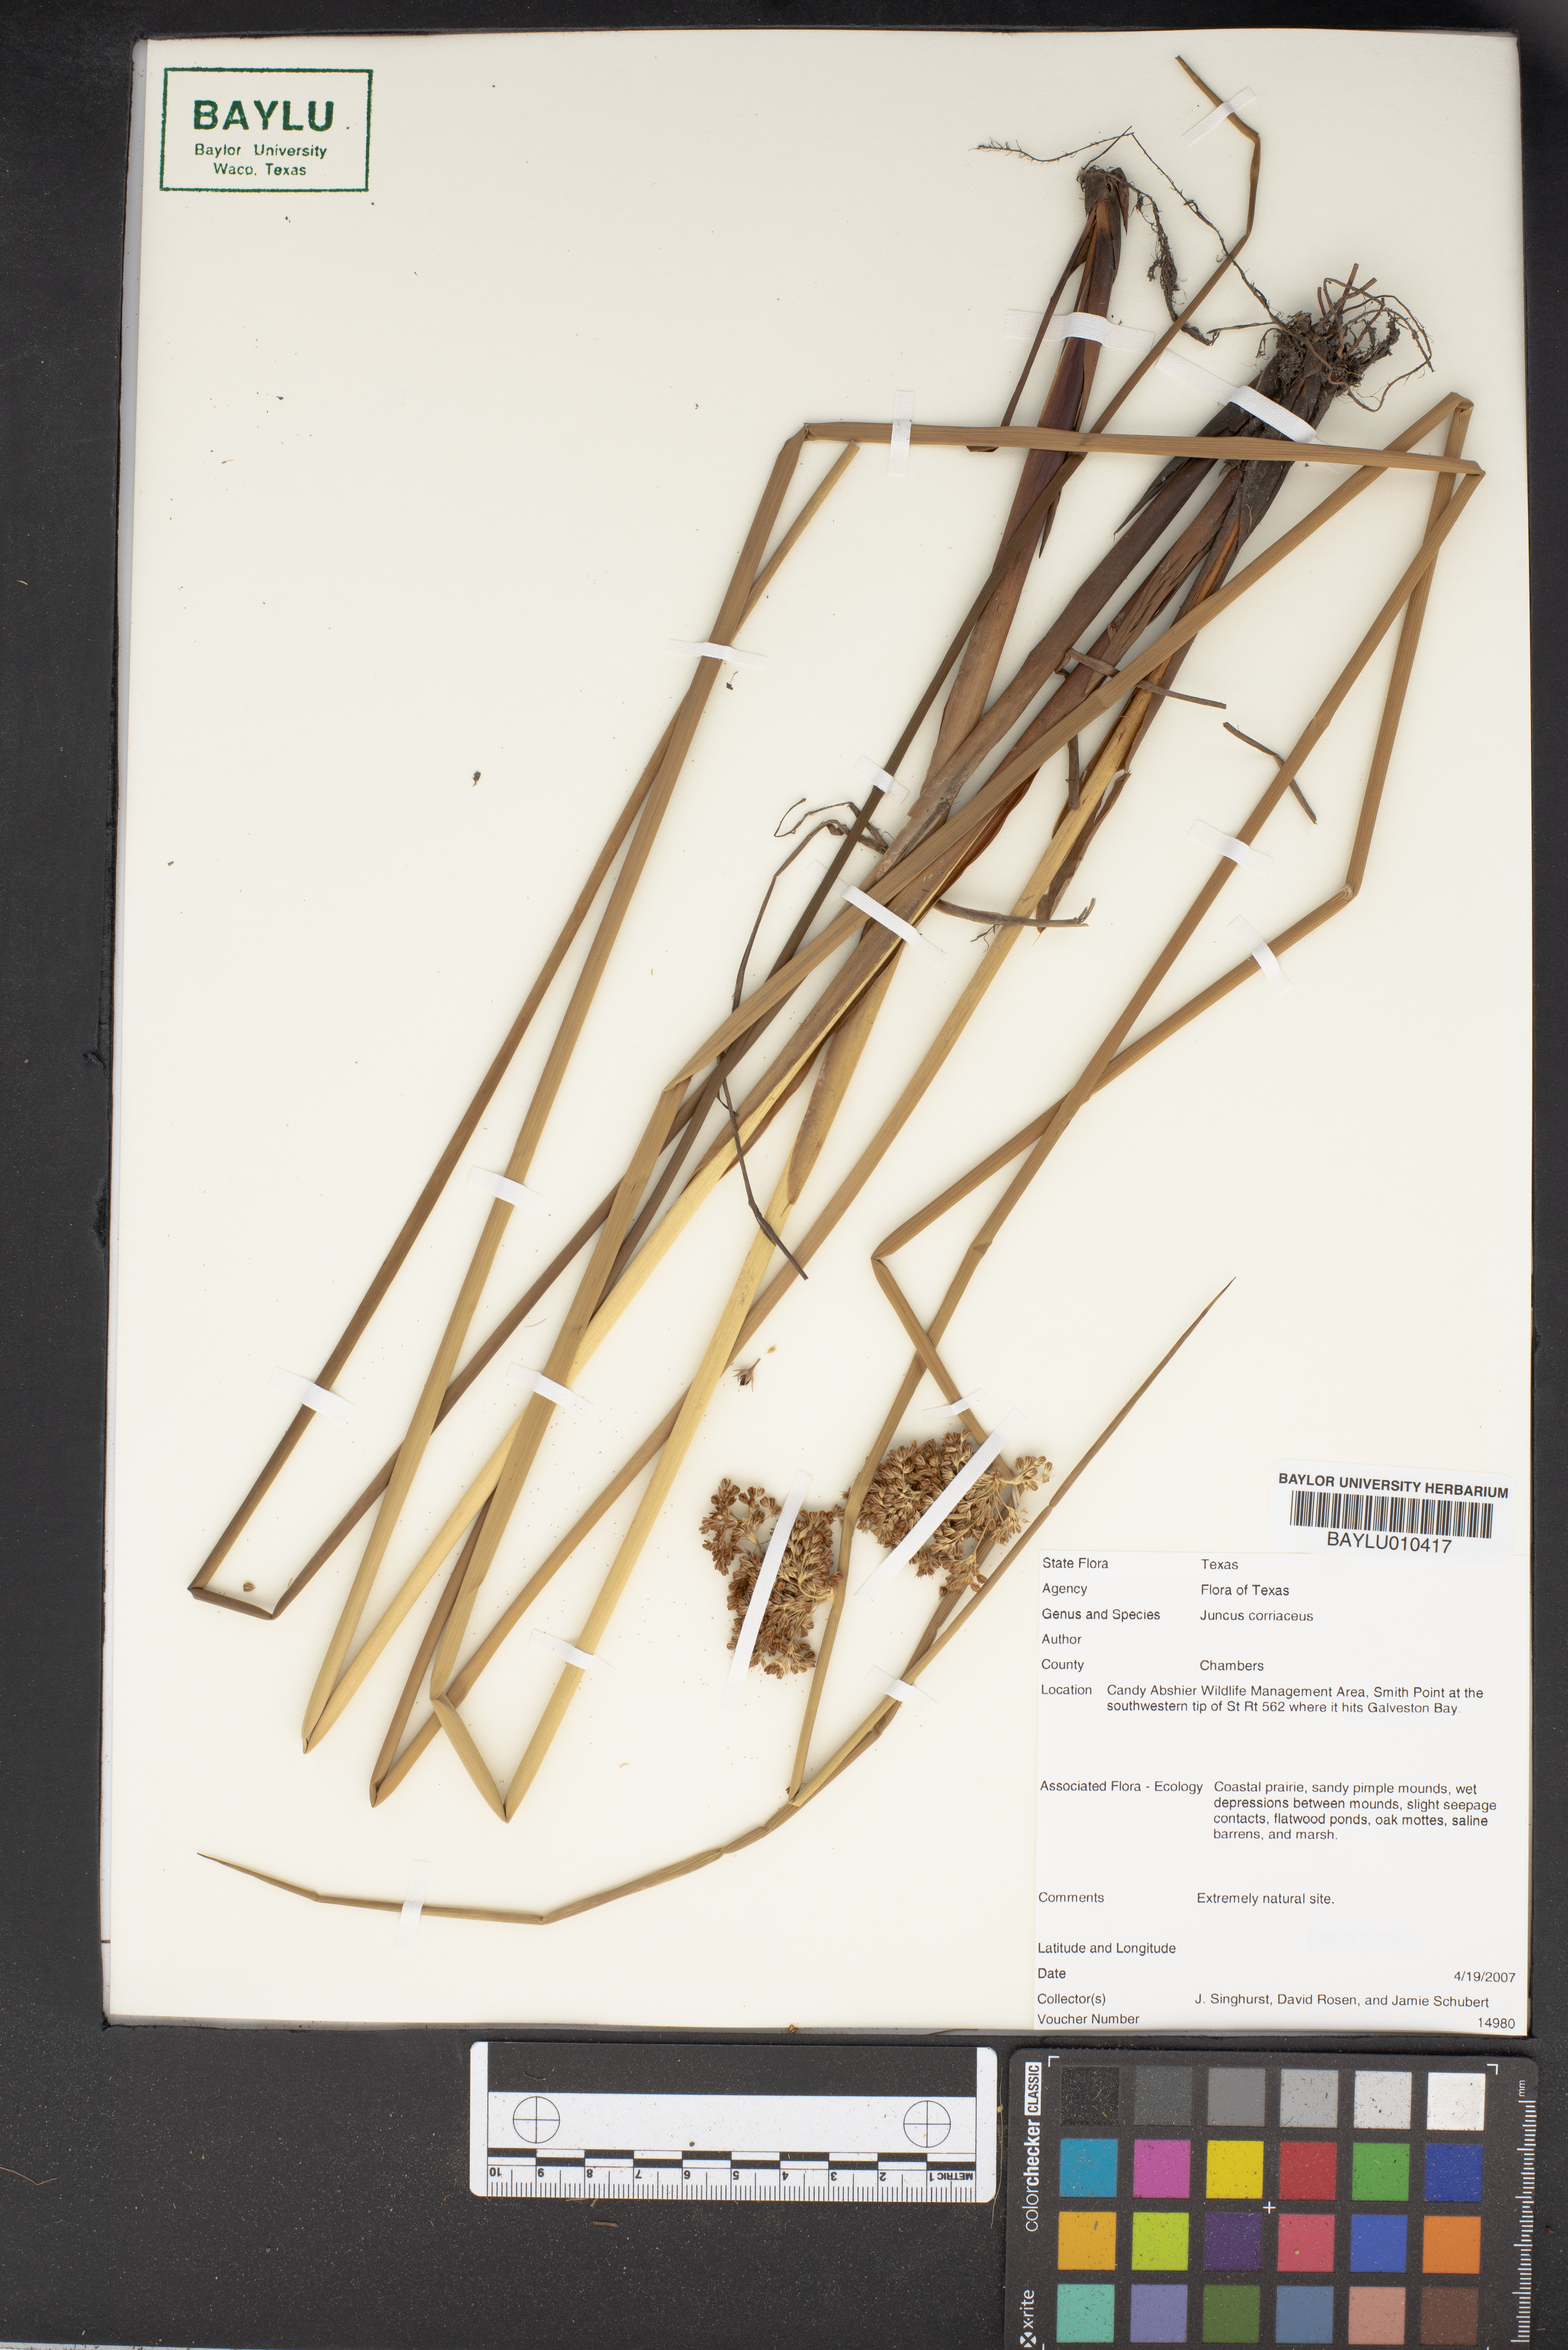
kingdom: Plantae
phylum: Tracheophyta
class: Liliopsida
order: Poales
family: Juncaceae
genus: Juncus
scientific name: Juncus coriaceus
